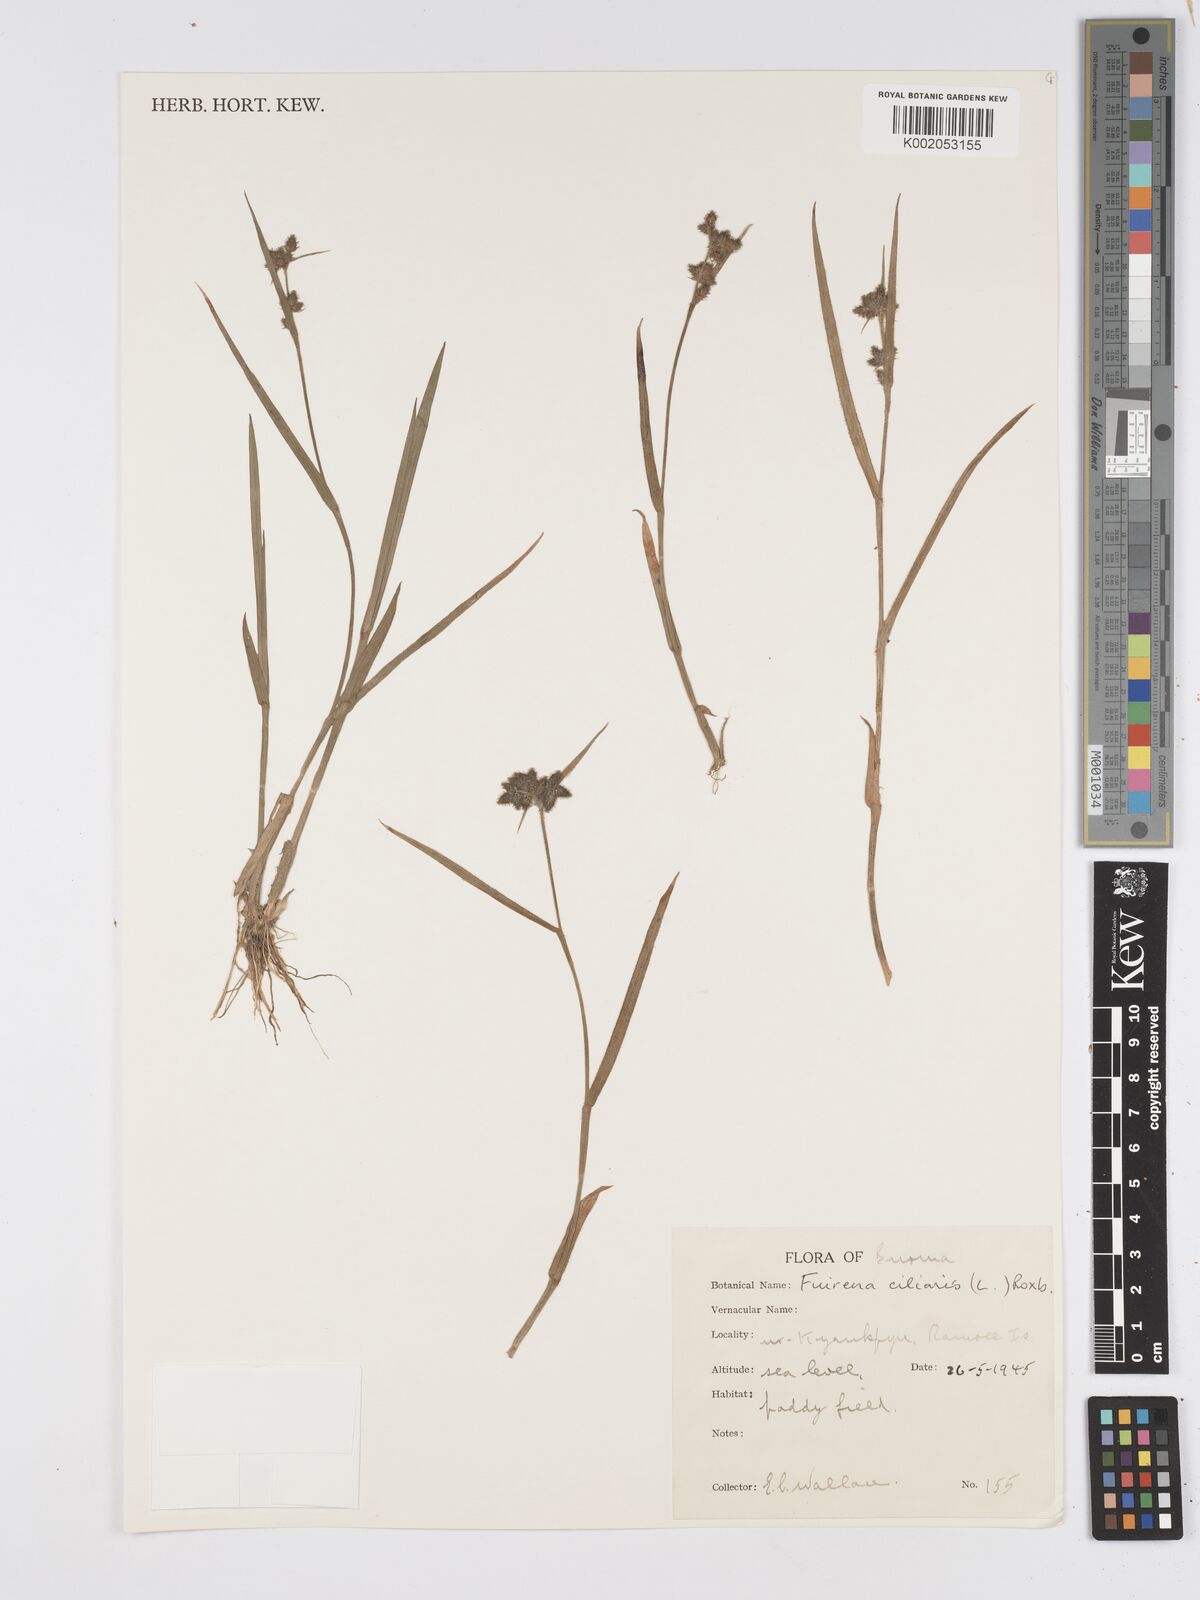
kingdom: Plantae
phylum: Tracheophyta
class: Liliopsida
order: Poales
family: Cyperaceae
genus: Fuirena
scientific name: Fuirena ciliaris
